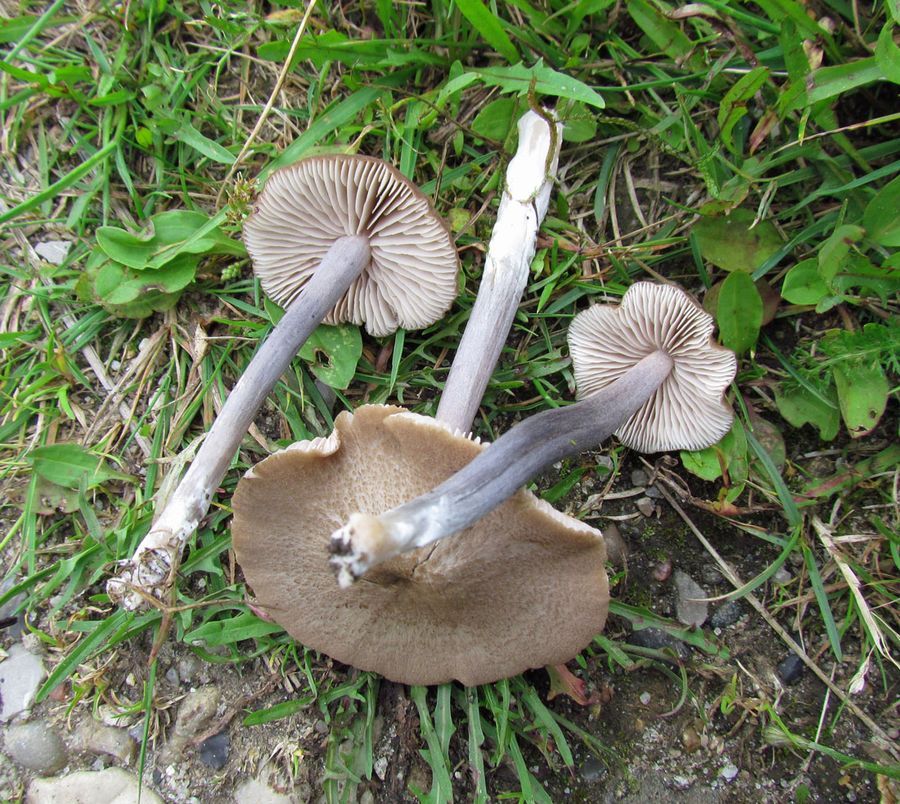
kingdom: Fungi
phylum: Basidiomycota
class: Agaricomycetes
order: Agaricales
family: Entolomataceae
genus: Entoloma
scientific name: Entoloma griseocyaneum
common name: gråblå rødblad
